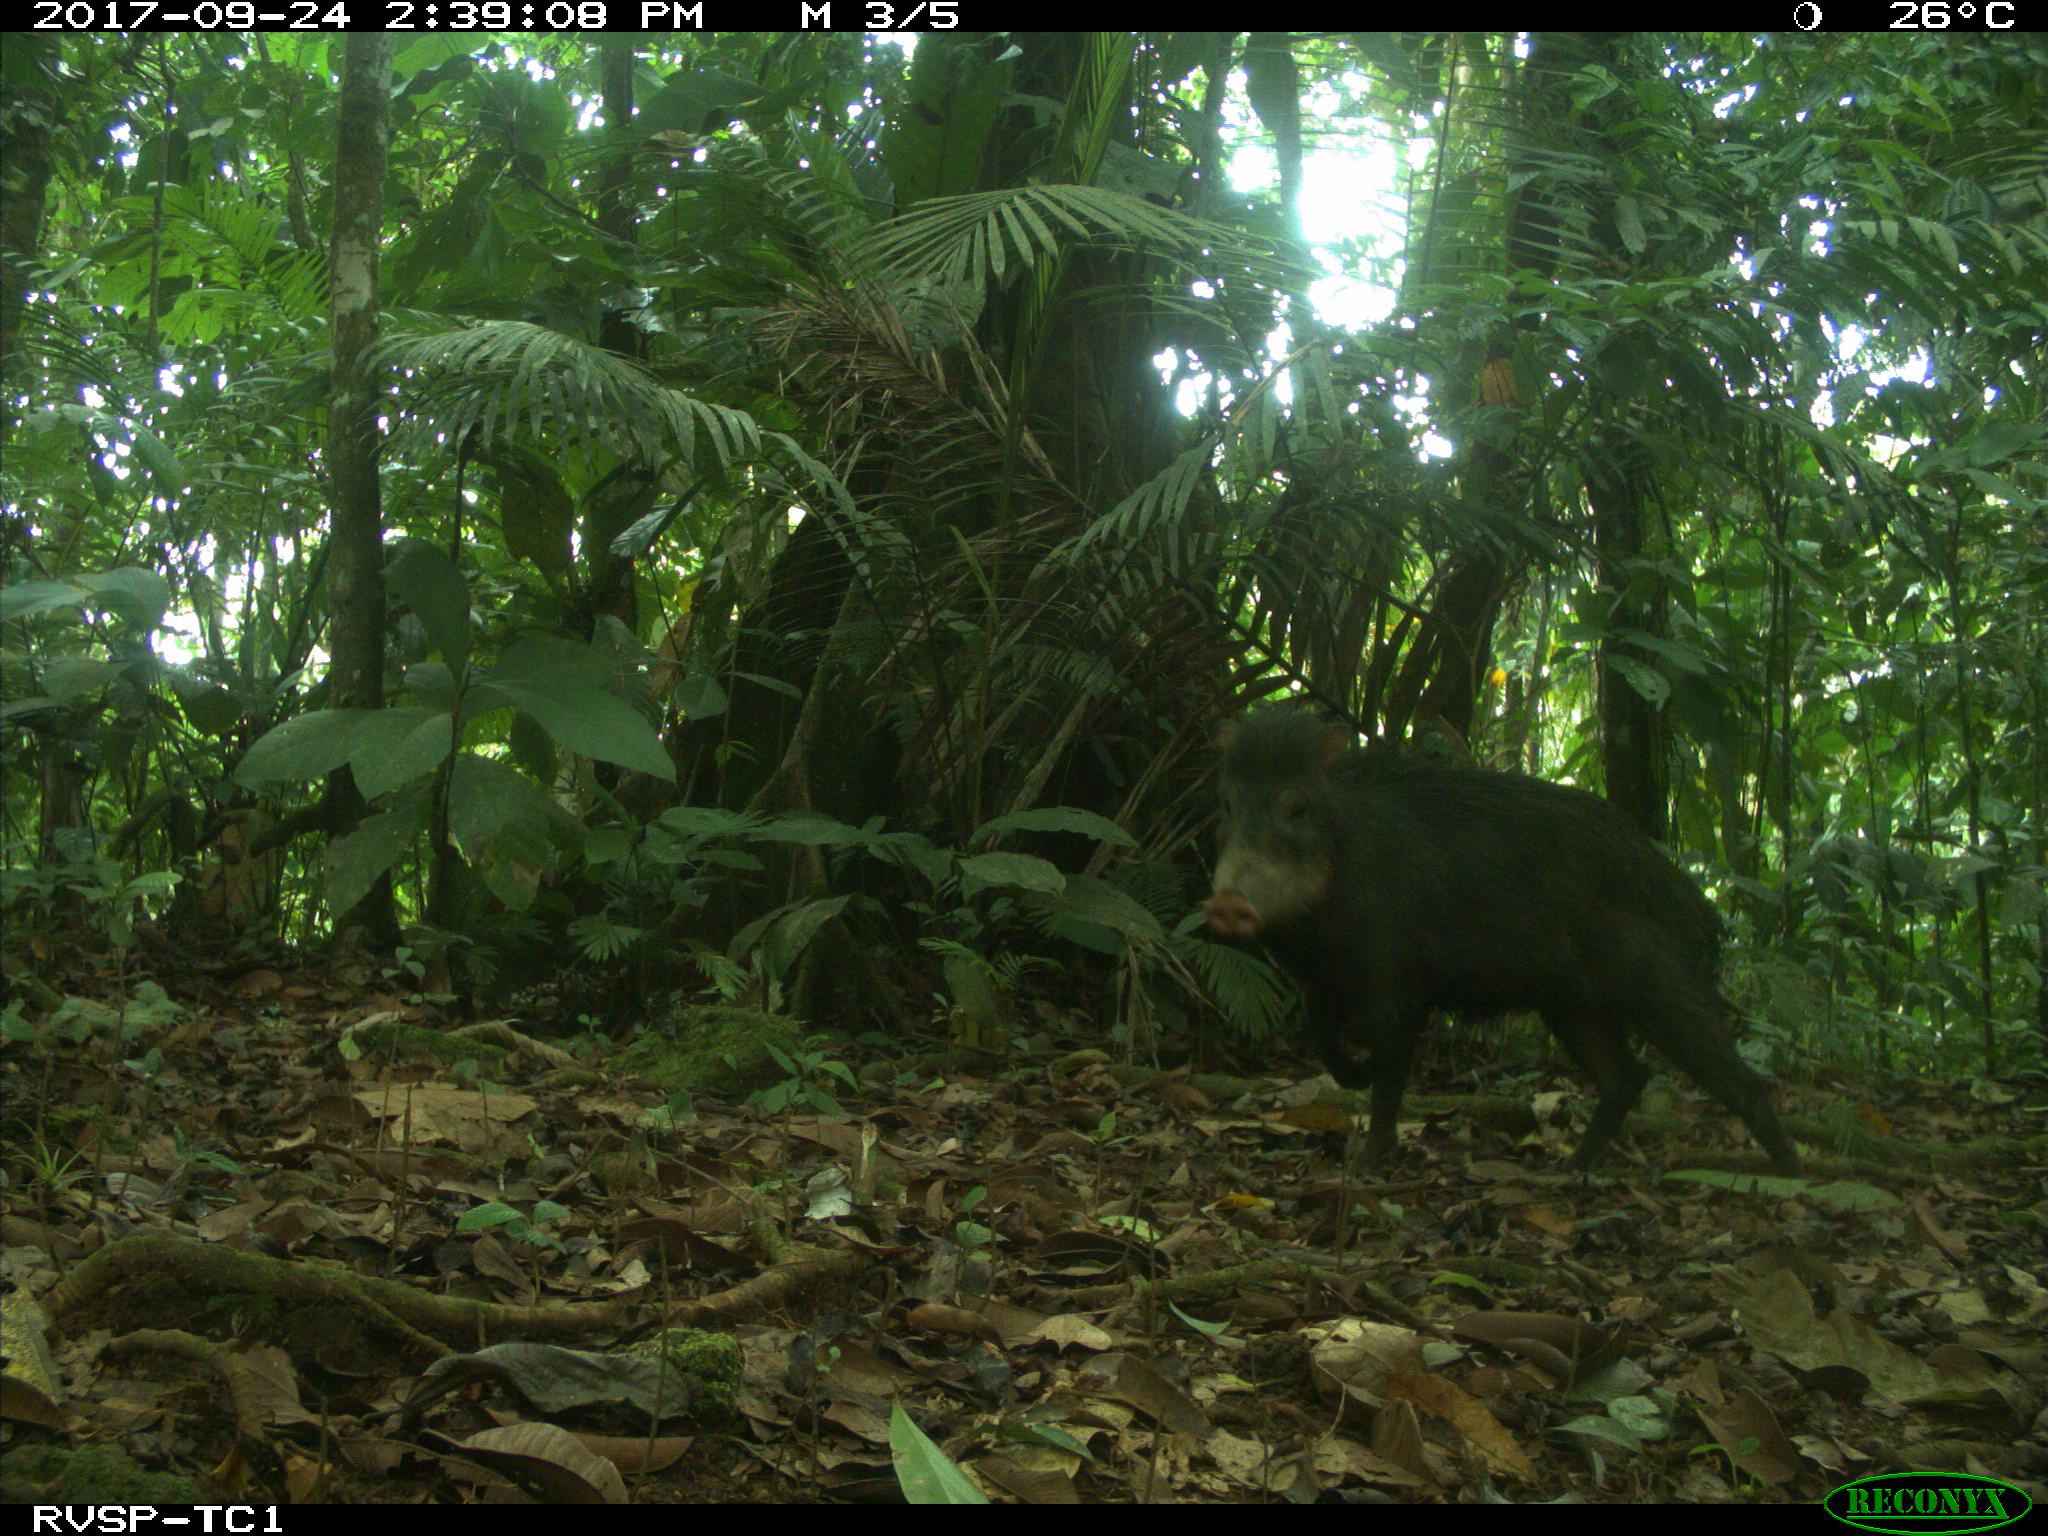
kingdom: Animalia
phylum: Chordata
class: Mammalia
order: Artiodactyla
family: Tayassuidae
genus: Tayassu
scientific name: Tayassu pecari
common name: White-lipped peccary
